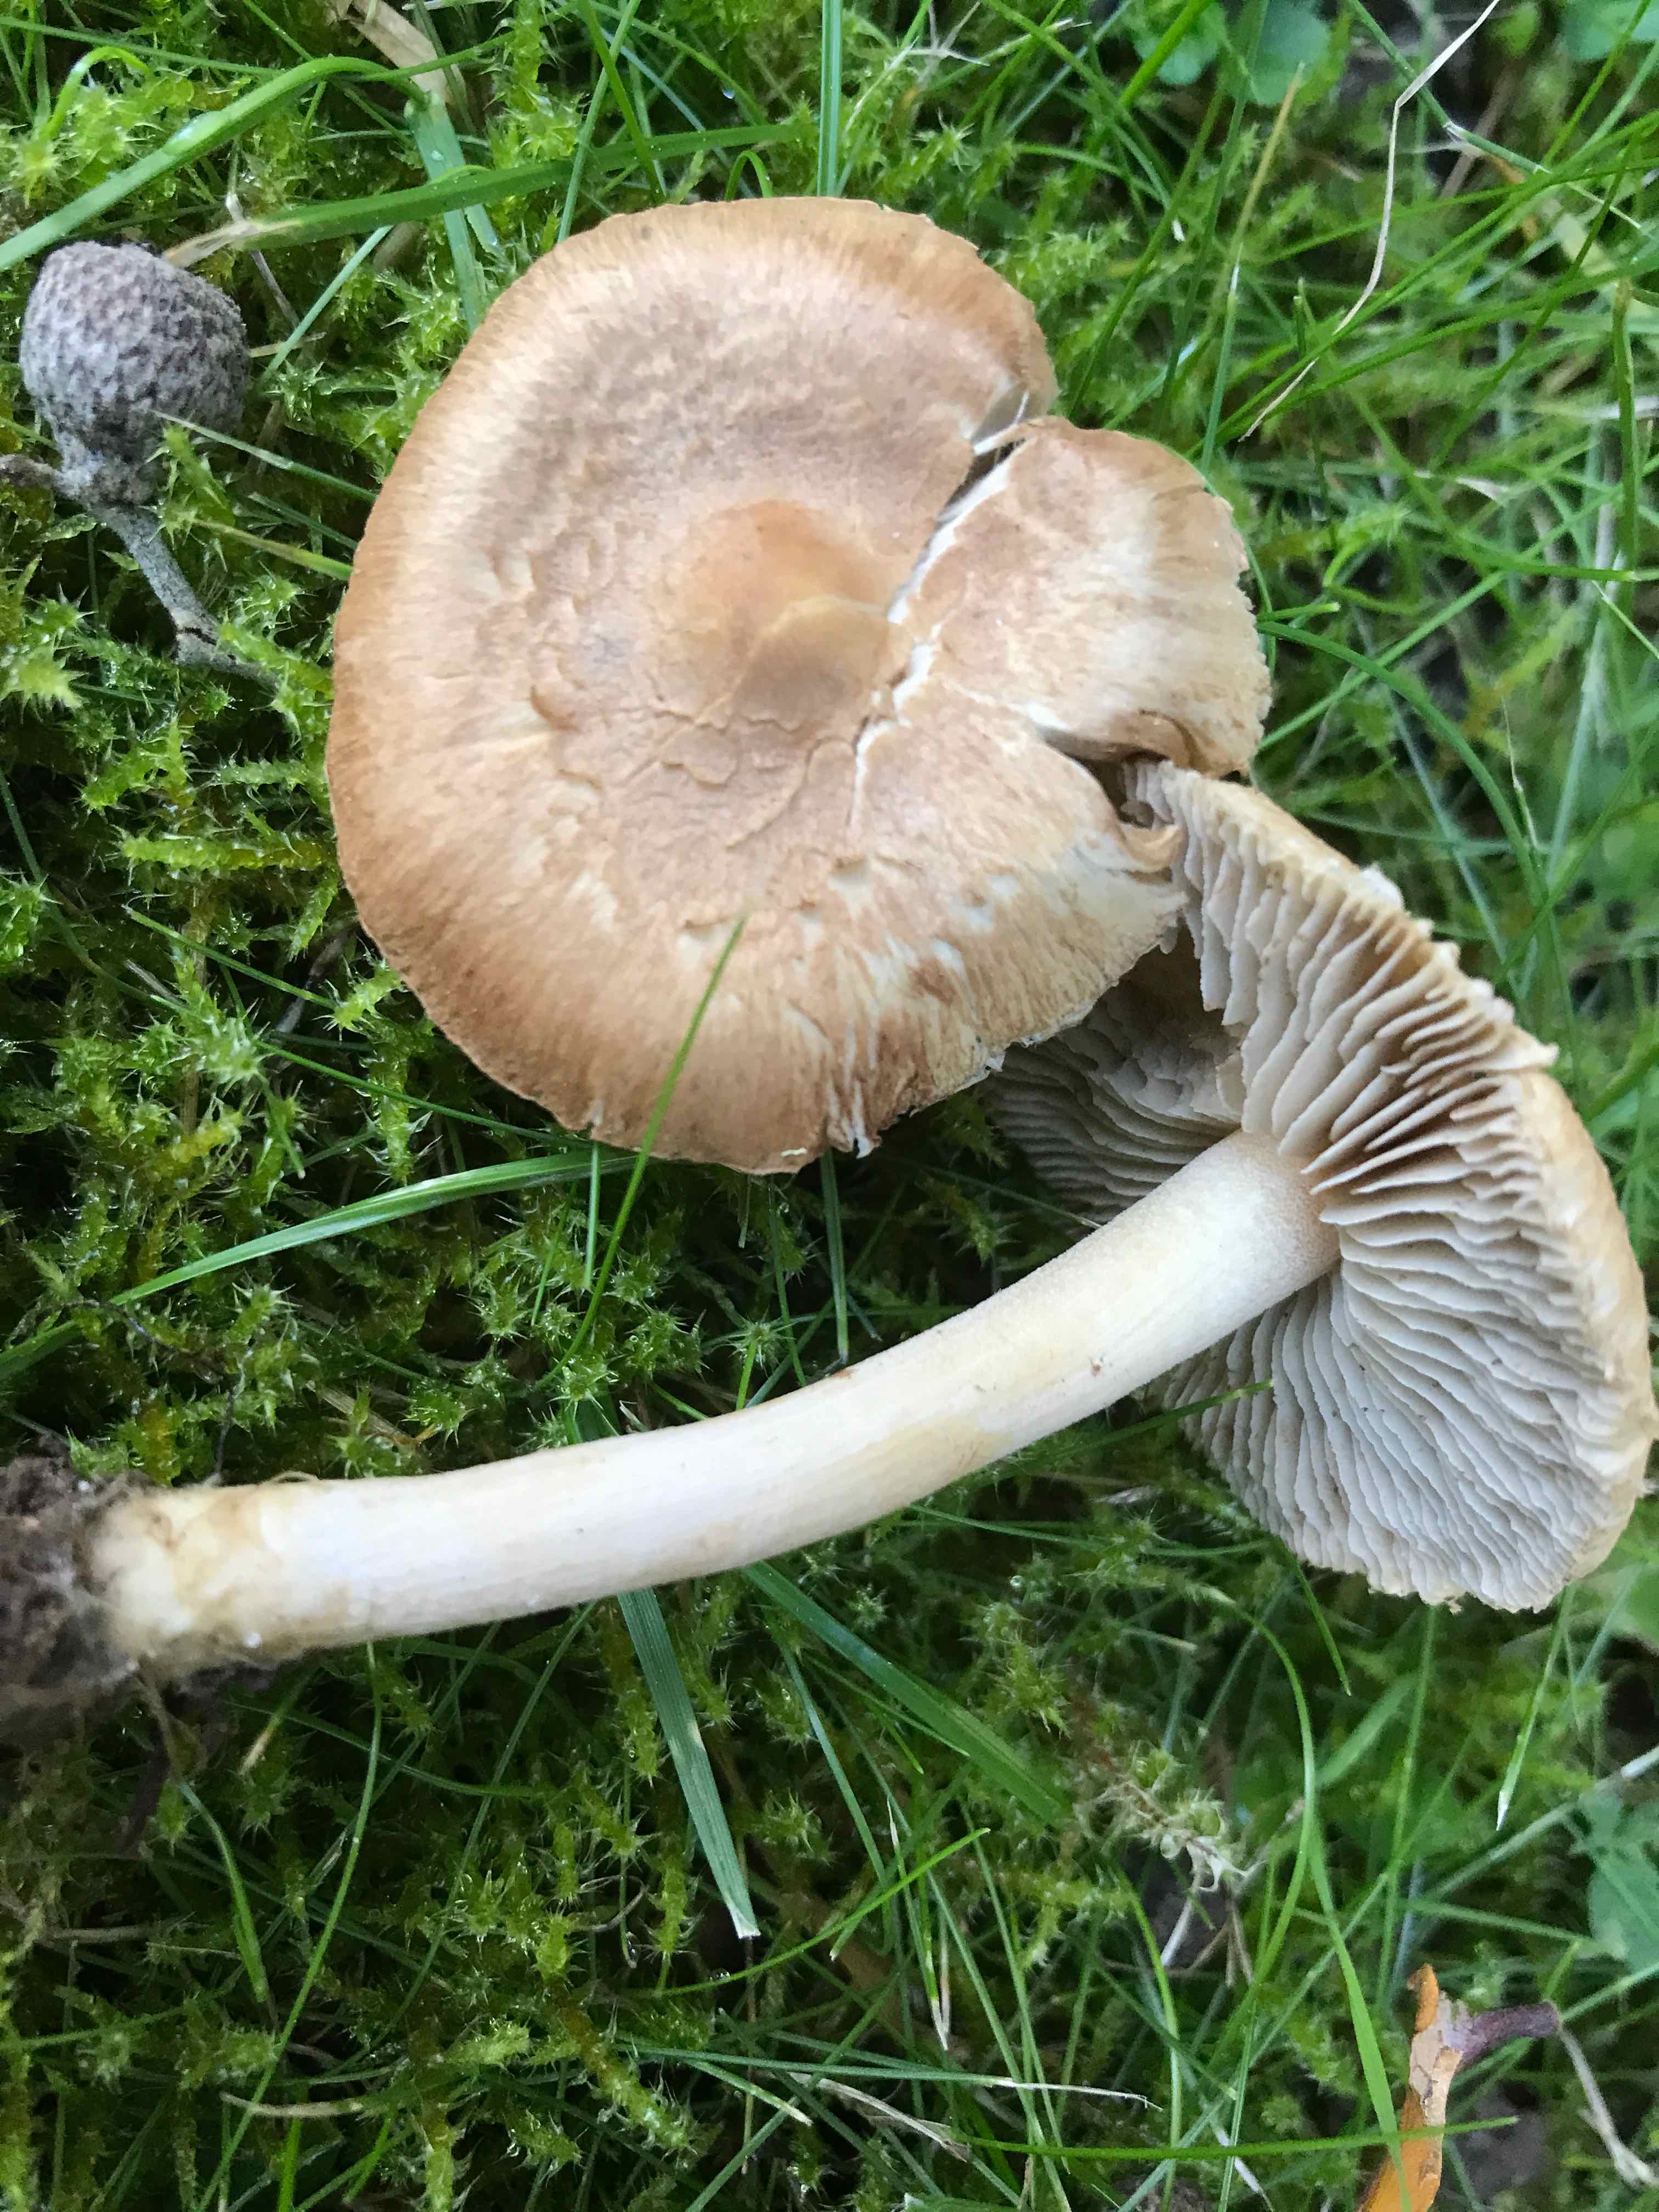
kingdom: Fungi
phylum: Basidiomycota
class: Agaricomycetes
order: Agaricales
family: Inocybaceae
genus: Inocybe
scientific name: Inocybe
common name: trævlhat
